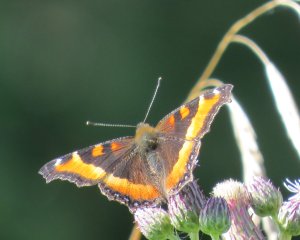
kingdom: Animalia
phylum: Arthropoda
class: Insecta
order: Lepidoptera
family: Nymphalidae
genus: Aglais
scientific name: Aglais milberti
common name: Milbert's Tortoiseshell
